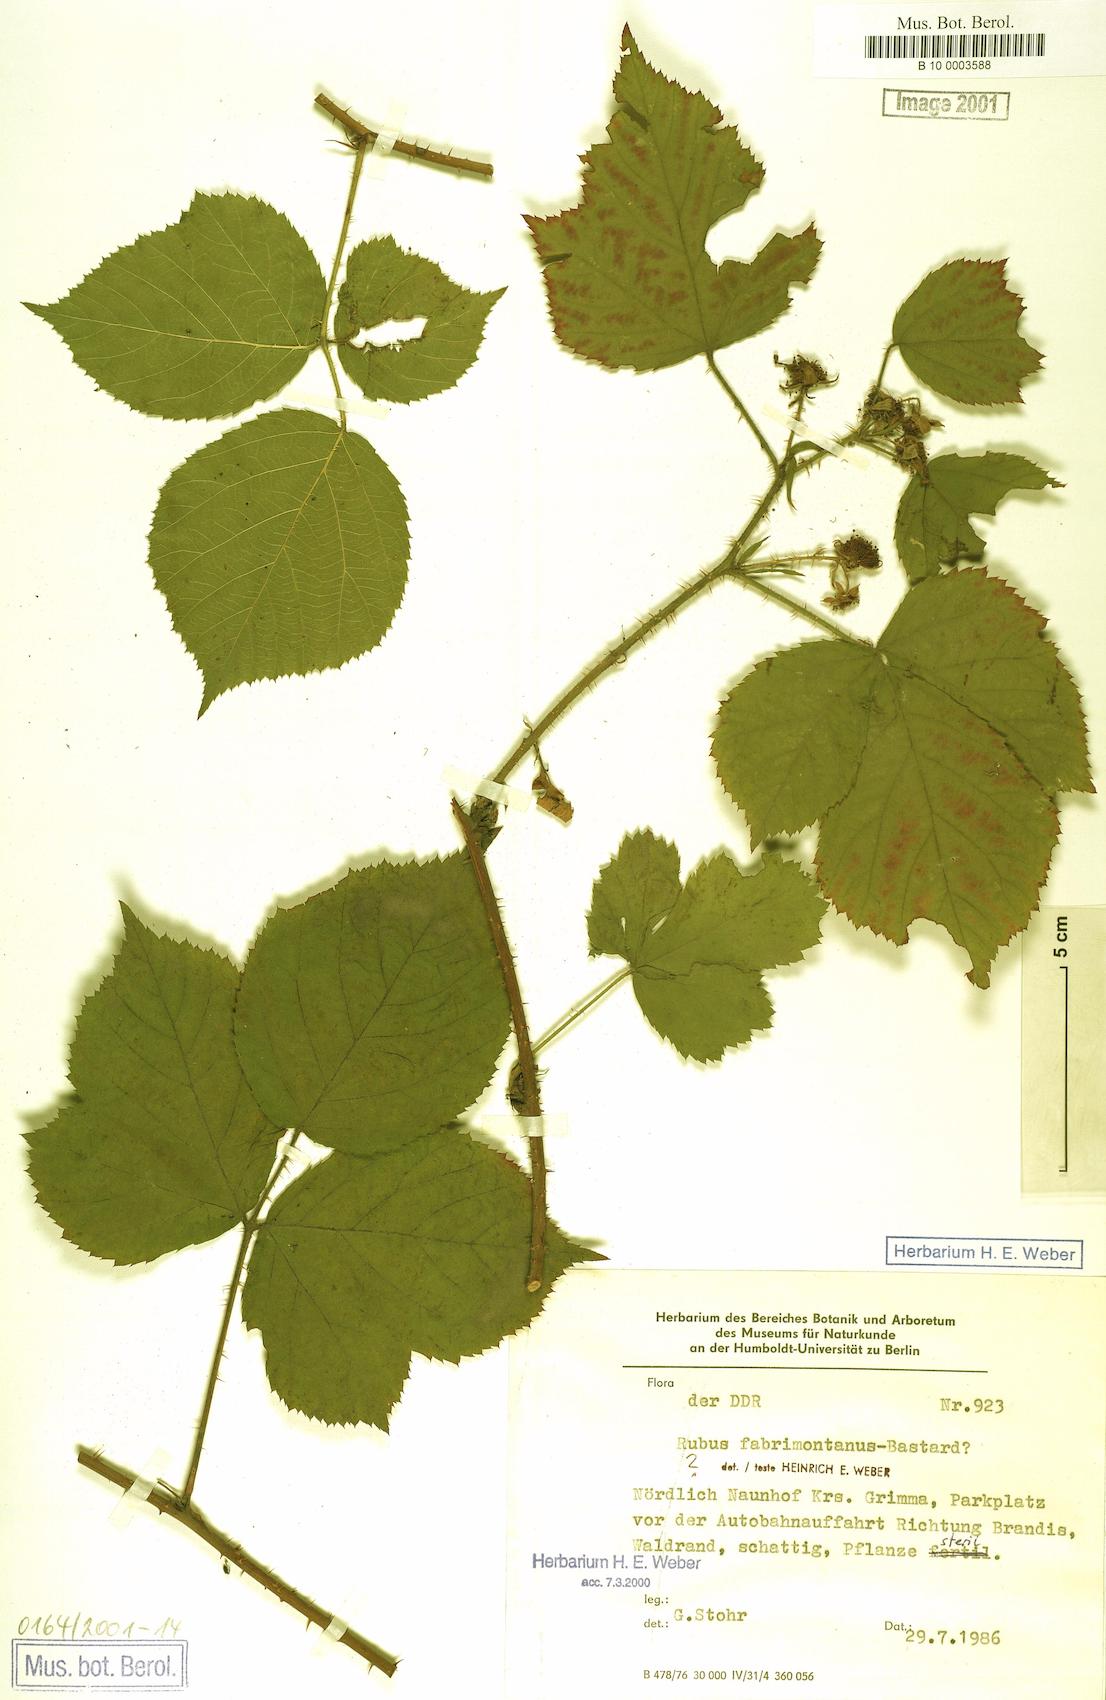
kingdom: Plantae
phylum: Tracheophyta
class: Magnoliopsida
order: Rosales
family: Rosaceae
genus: Rubus
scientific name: Rubus fabrimontanus
